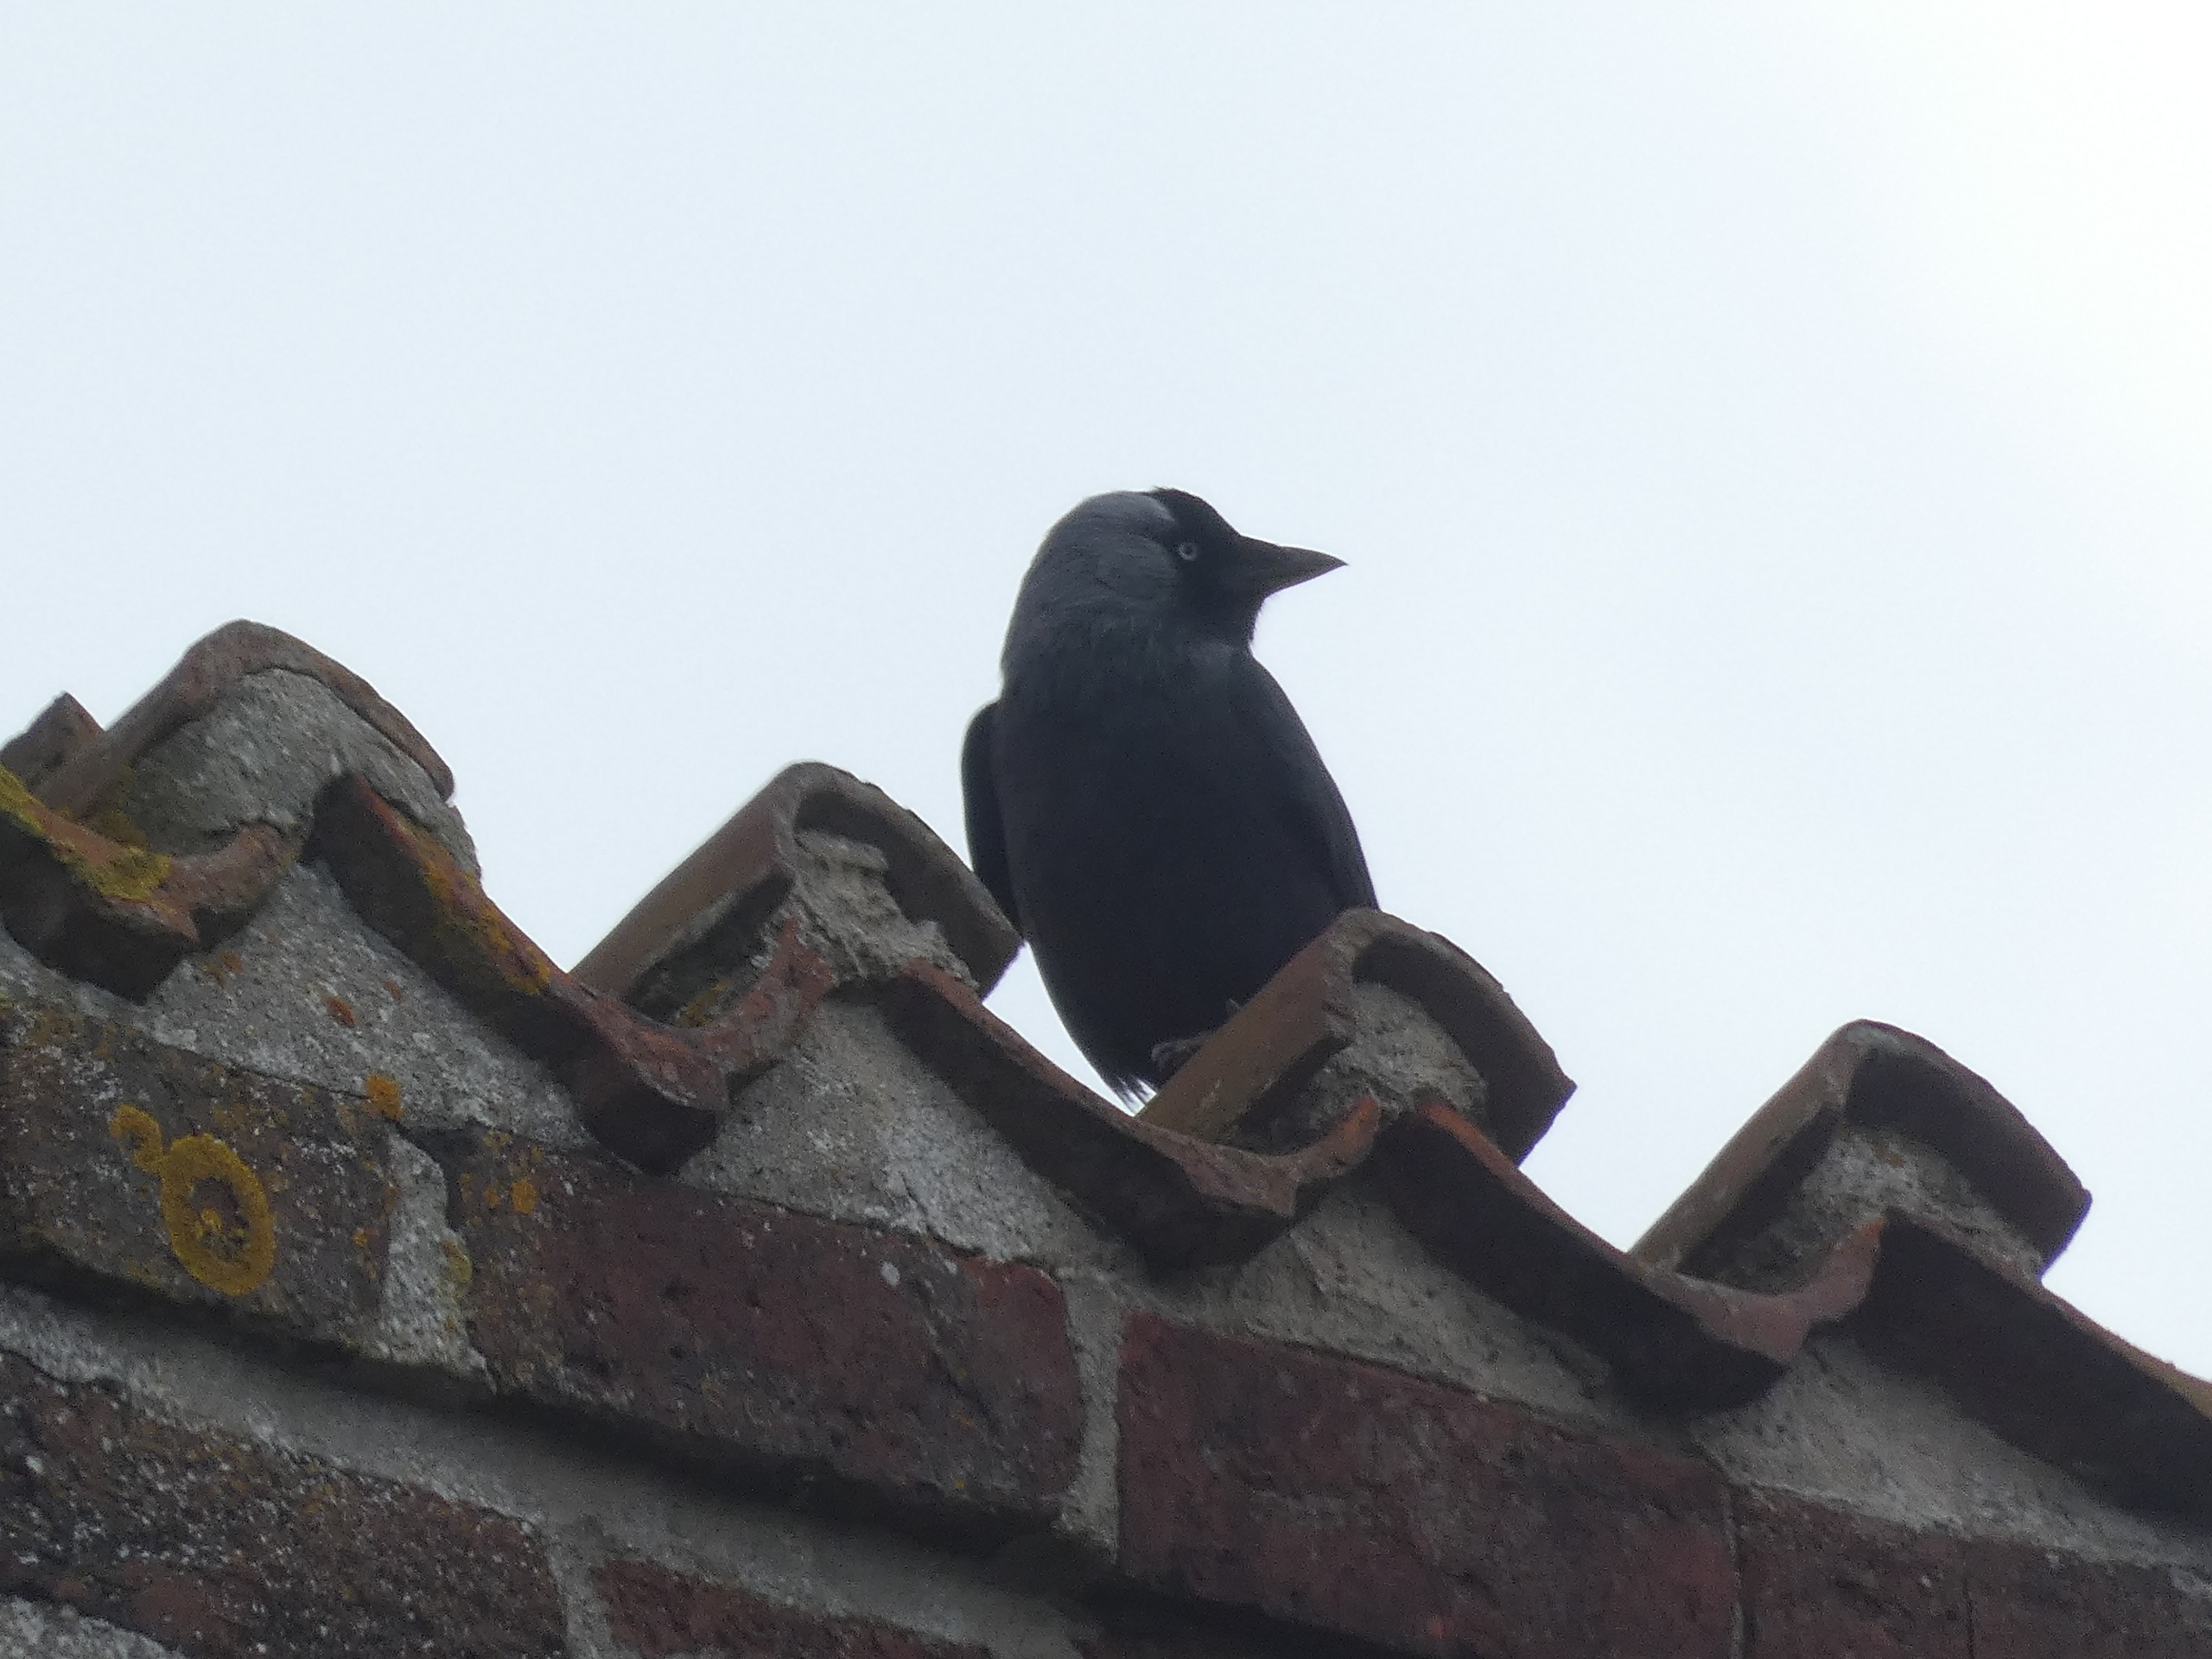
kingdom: Animalia
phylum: Chordata
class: Aves
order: Passeriformes
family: Corvidae
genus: Coloeus
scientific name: Coloeus monedula
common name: Allike
